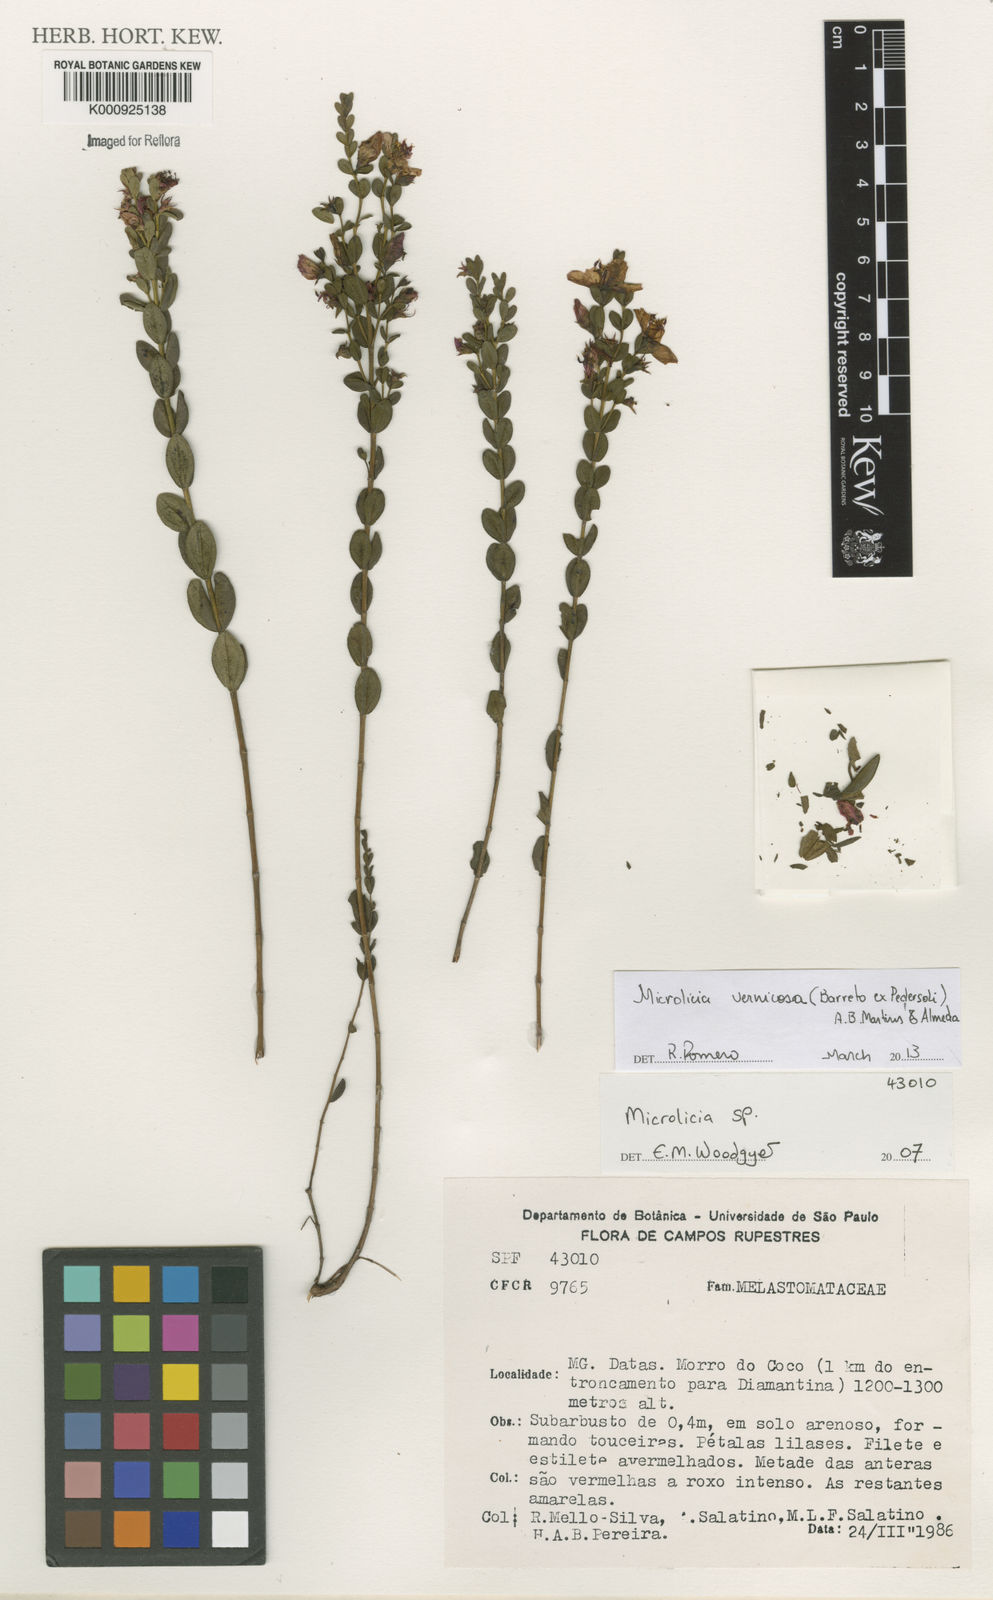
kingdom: Plantae
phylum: Tracheophyta
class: Magnoliopsida
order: Myrtales
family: Melastomataceae
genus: Microlicia
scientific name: Microlicia vernicosa
